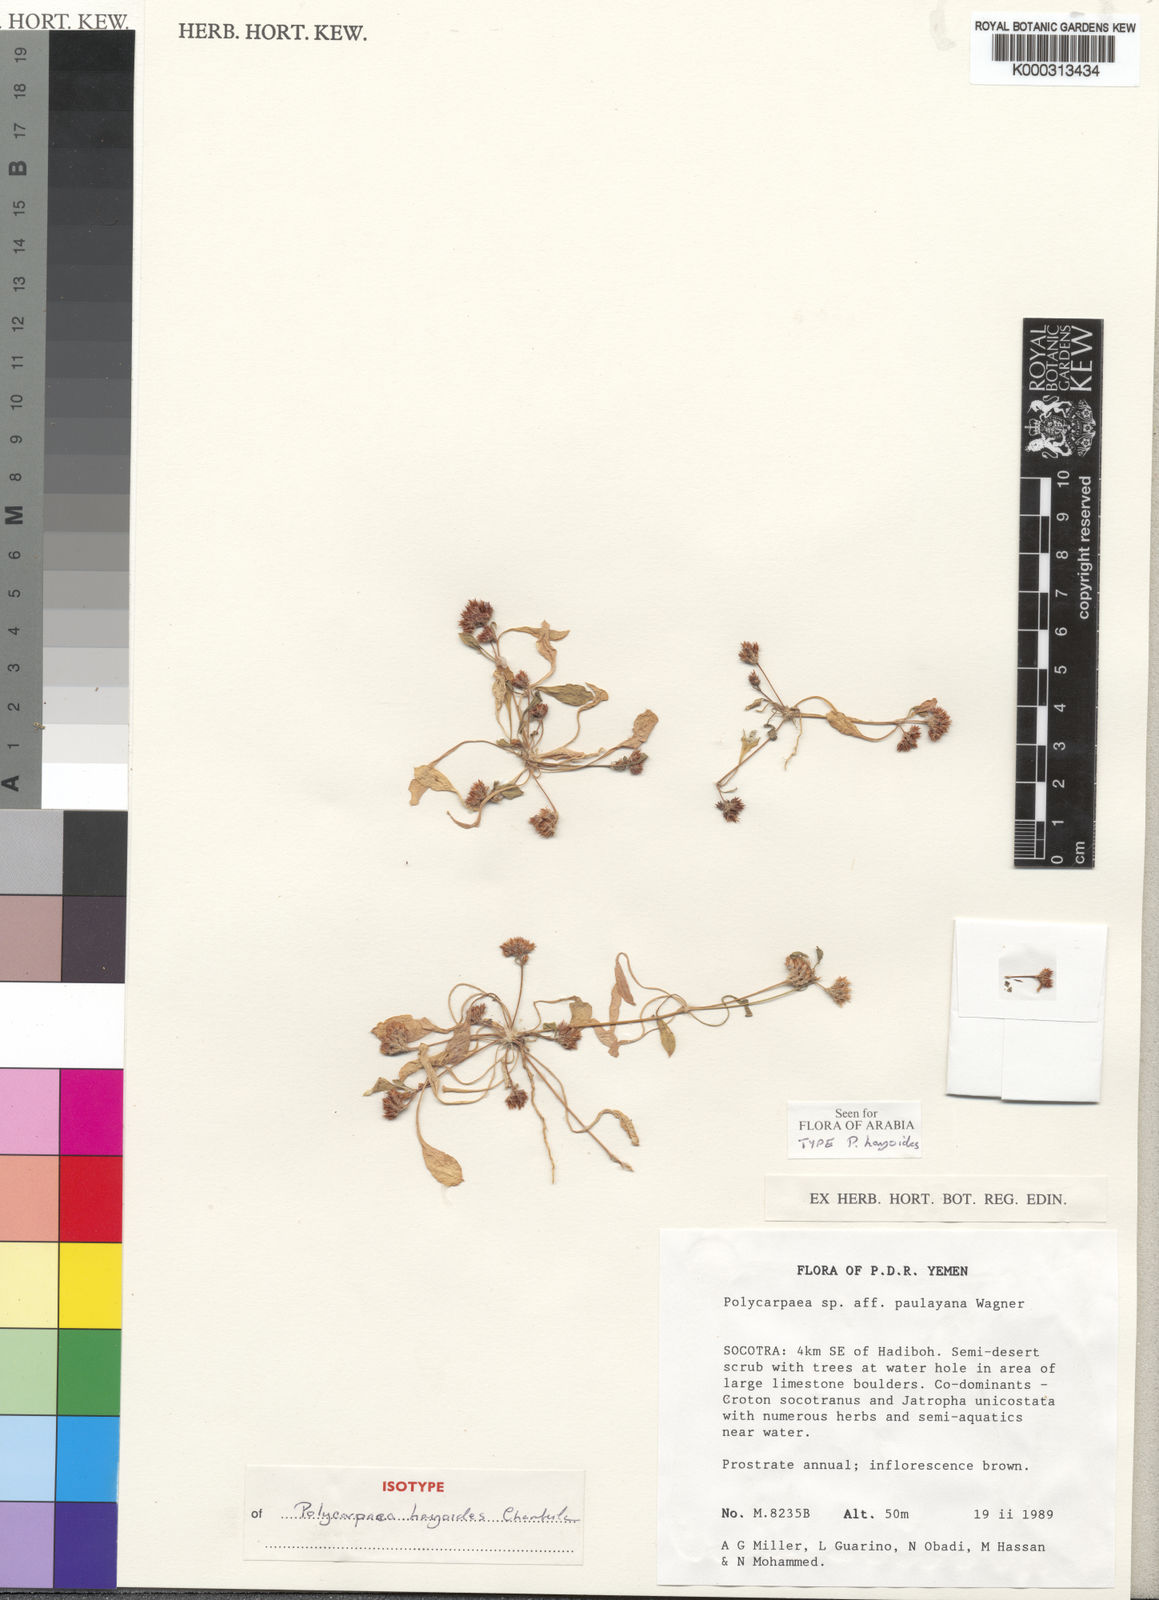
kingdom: Plantae
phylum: Tracheophyta
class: Magnoliopsida
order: Caryophyllales
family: Caryophyllaceae
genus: Polycarpaea
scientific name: Polycarpaea hayoides
